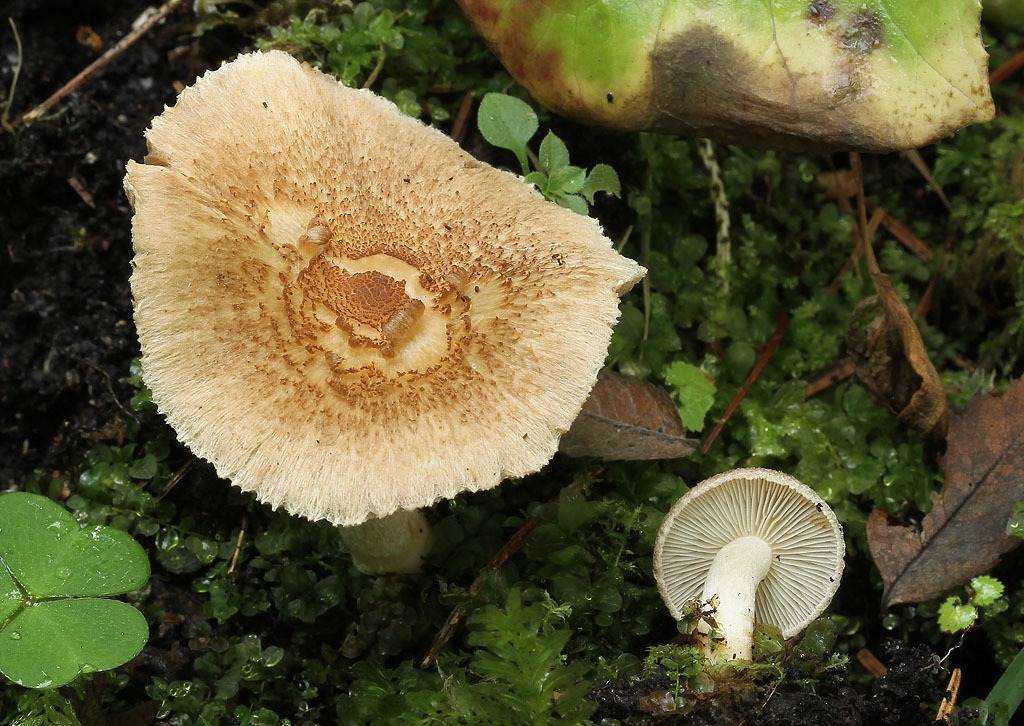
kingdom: Fungi
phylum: Basidiomycota
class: Agaricomycetes
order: Agaricales
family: Inocybaceae
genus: Inocybe
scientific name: Inocybe
